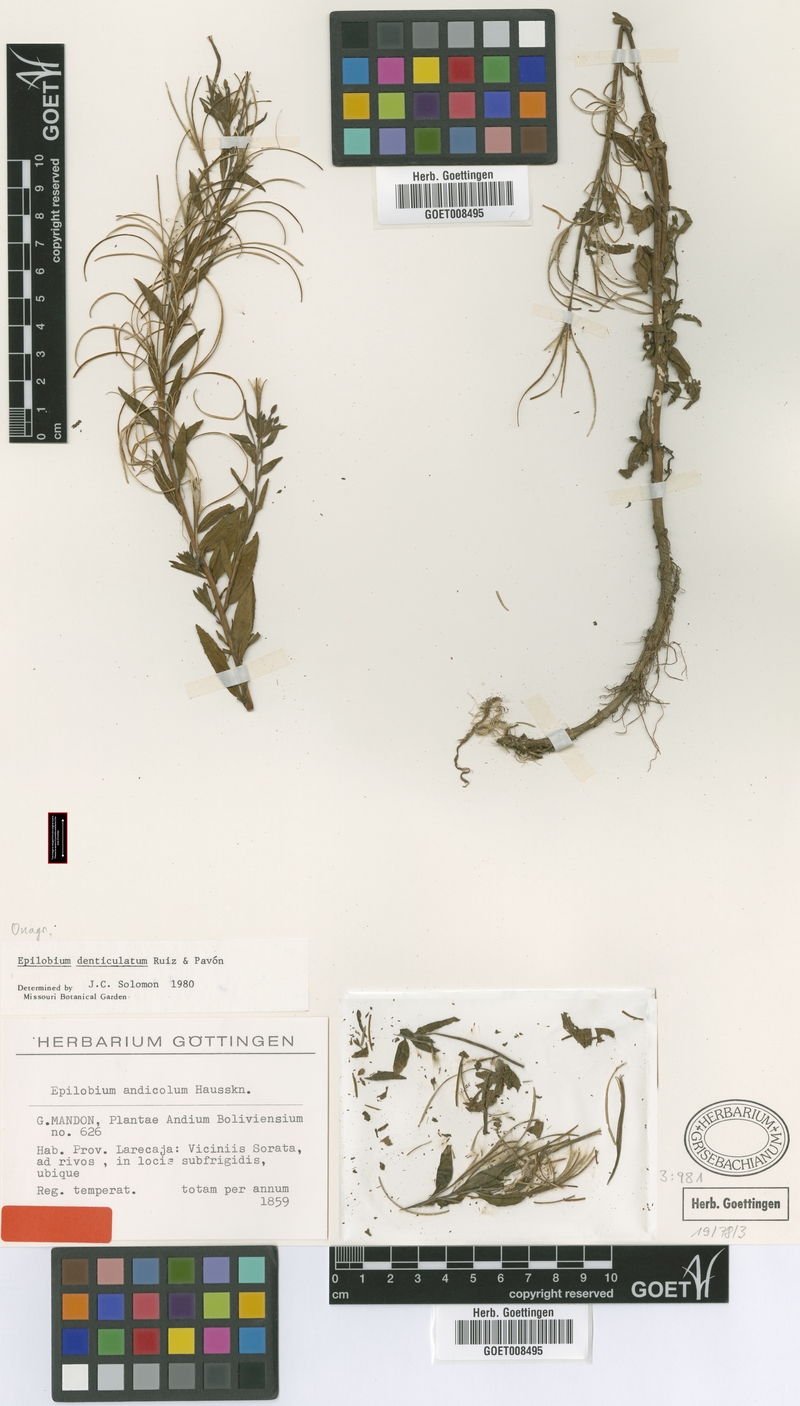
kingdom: Plantae
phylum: Tracheophyta
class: Magnoliopsida
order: Myrtales
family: Onagraceae
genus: Epilobium
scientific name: Epilobium denticulatum
